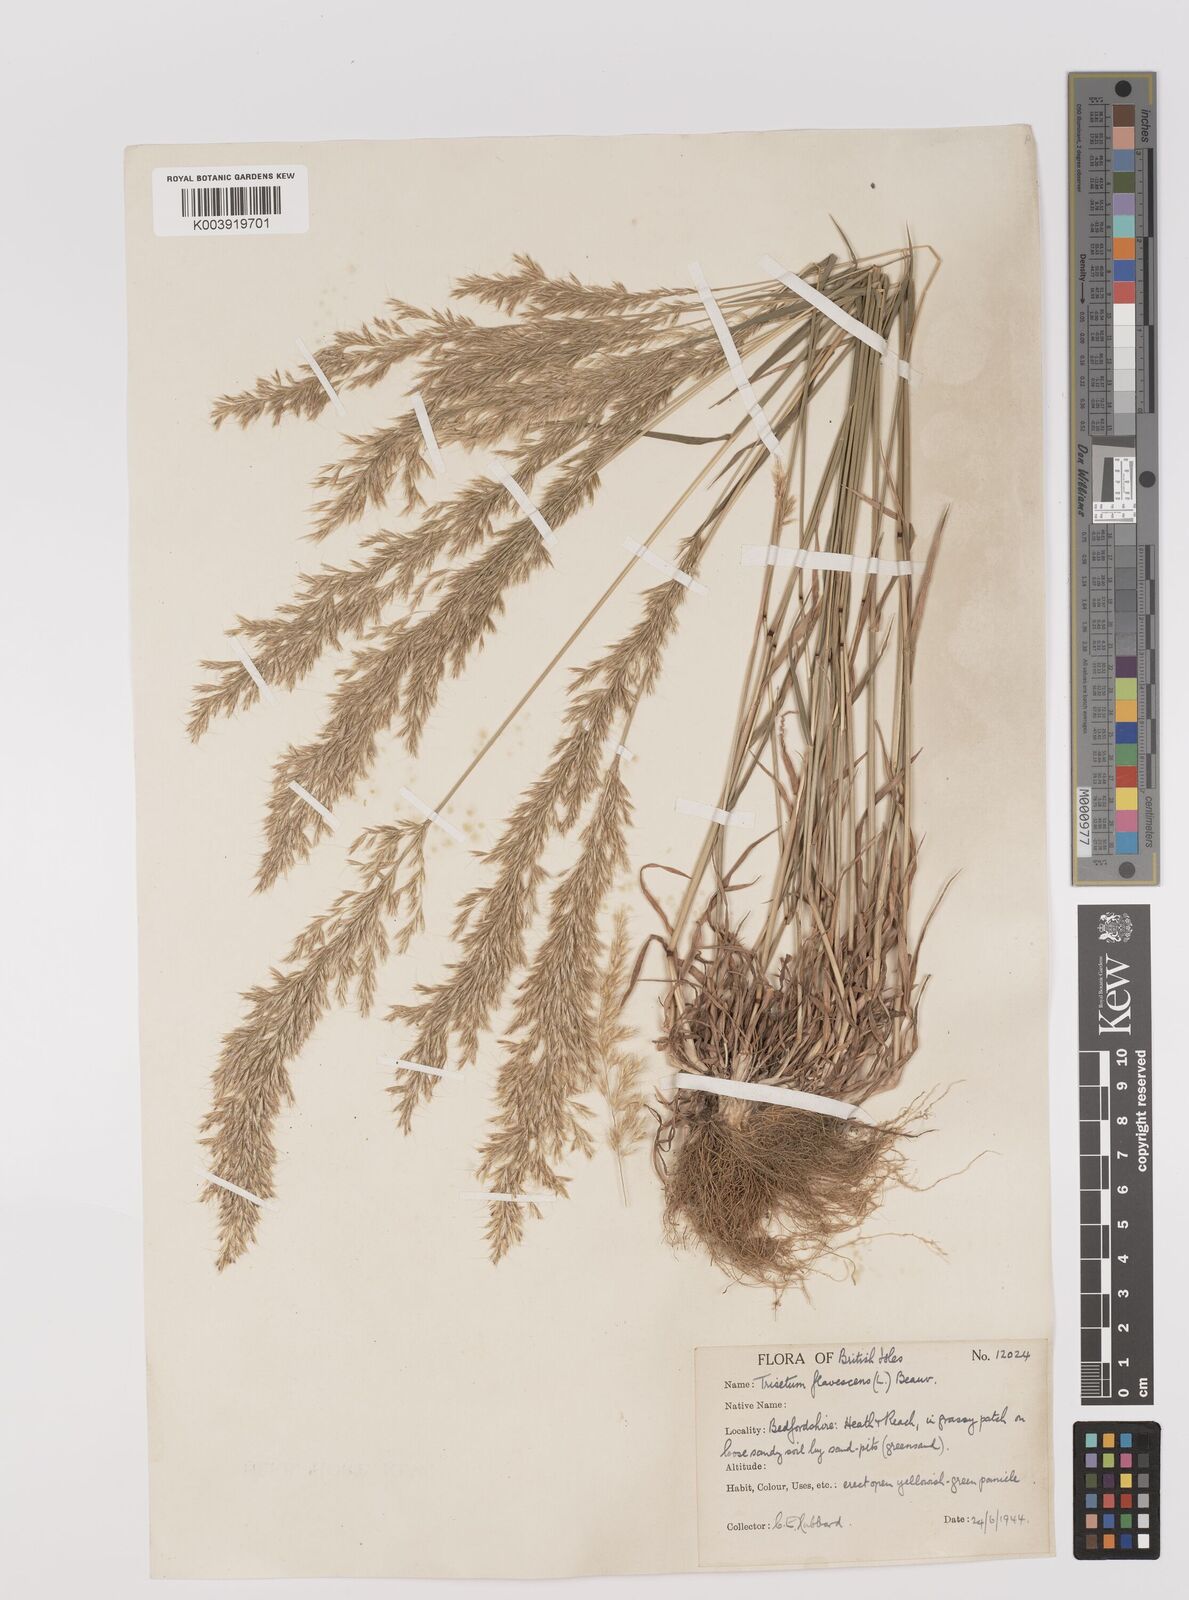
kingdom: Plantae
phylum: Tracheophyta
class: Liliopsida
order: Poales
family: Poaceae
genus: Trisetum
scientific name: Trisetum flavescens
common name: Yellow oat-grass
